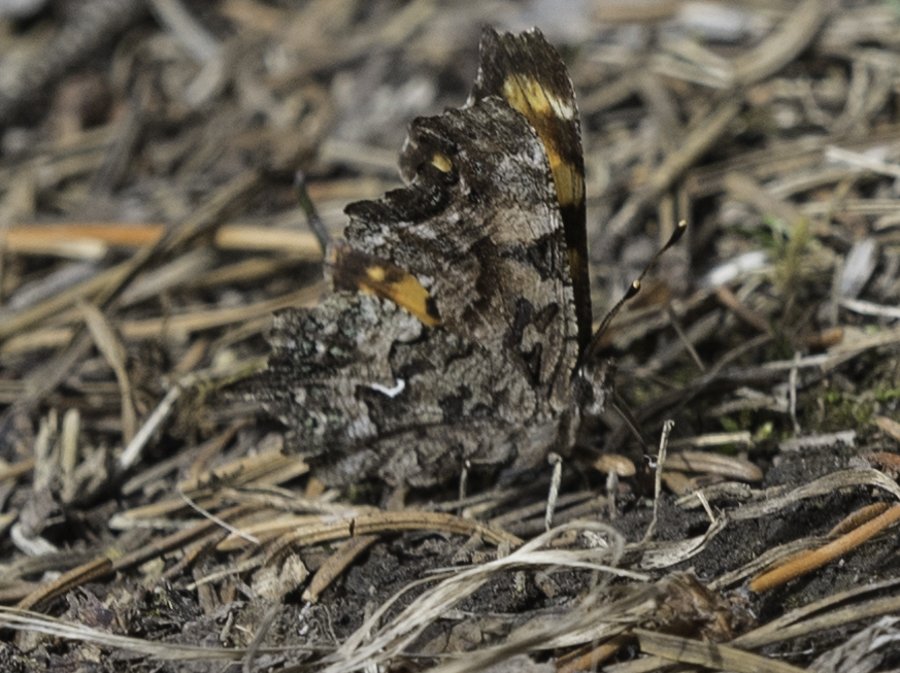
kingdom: Animalia
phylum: Arthropoda
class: Insecta
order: Lepidoptera
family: Nymphalidae
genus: Polygonia
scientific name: Polygonia faunus
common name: Green Comma
